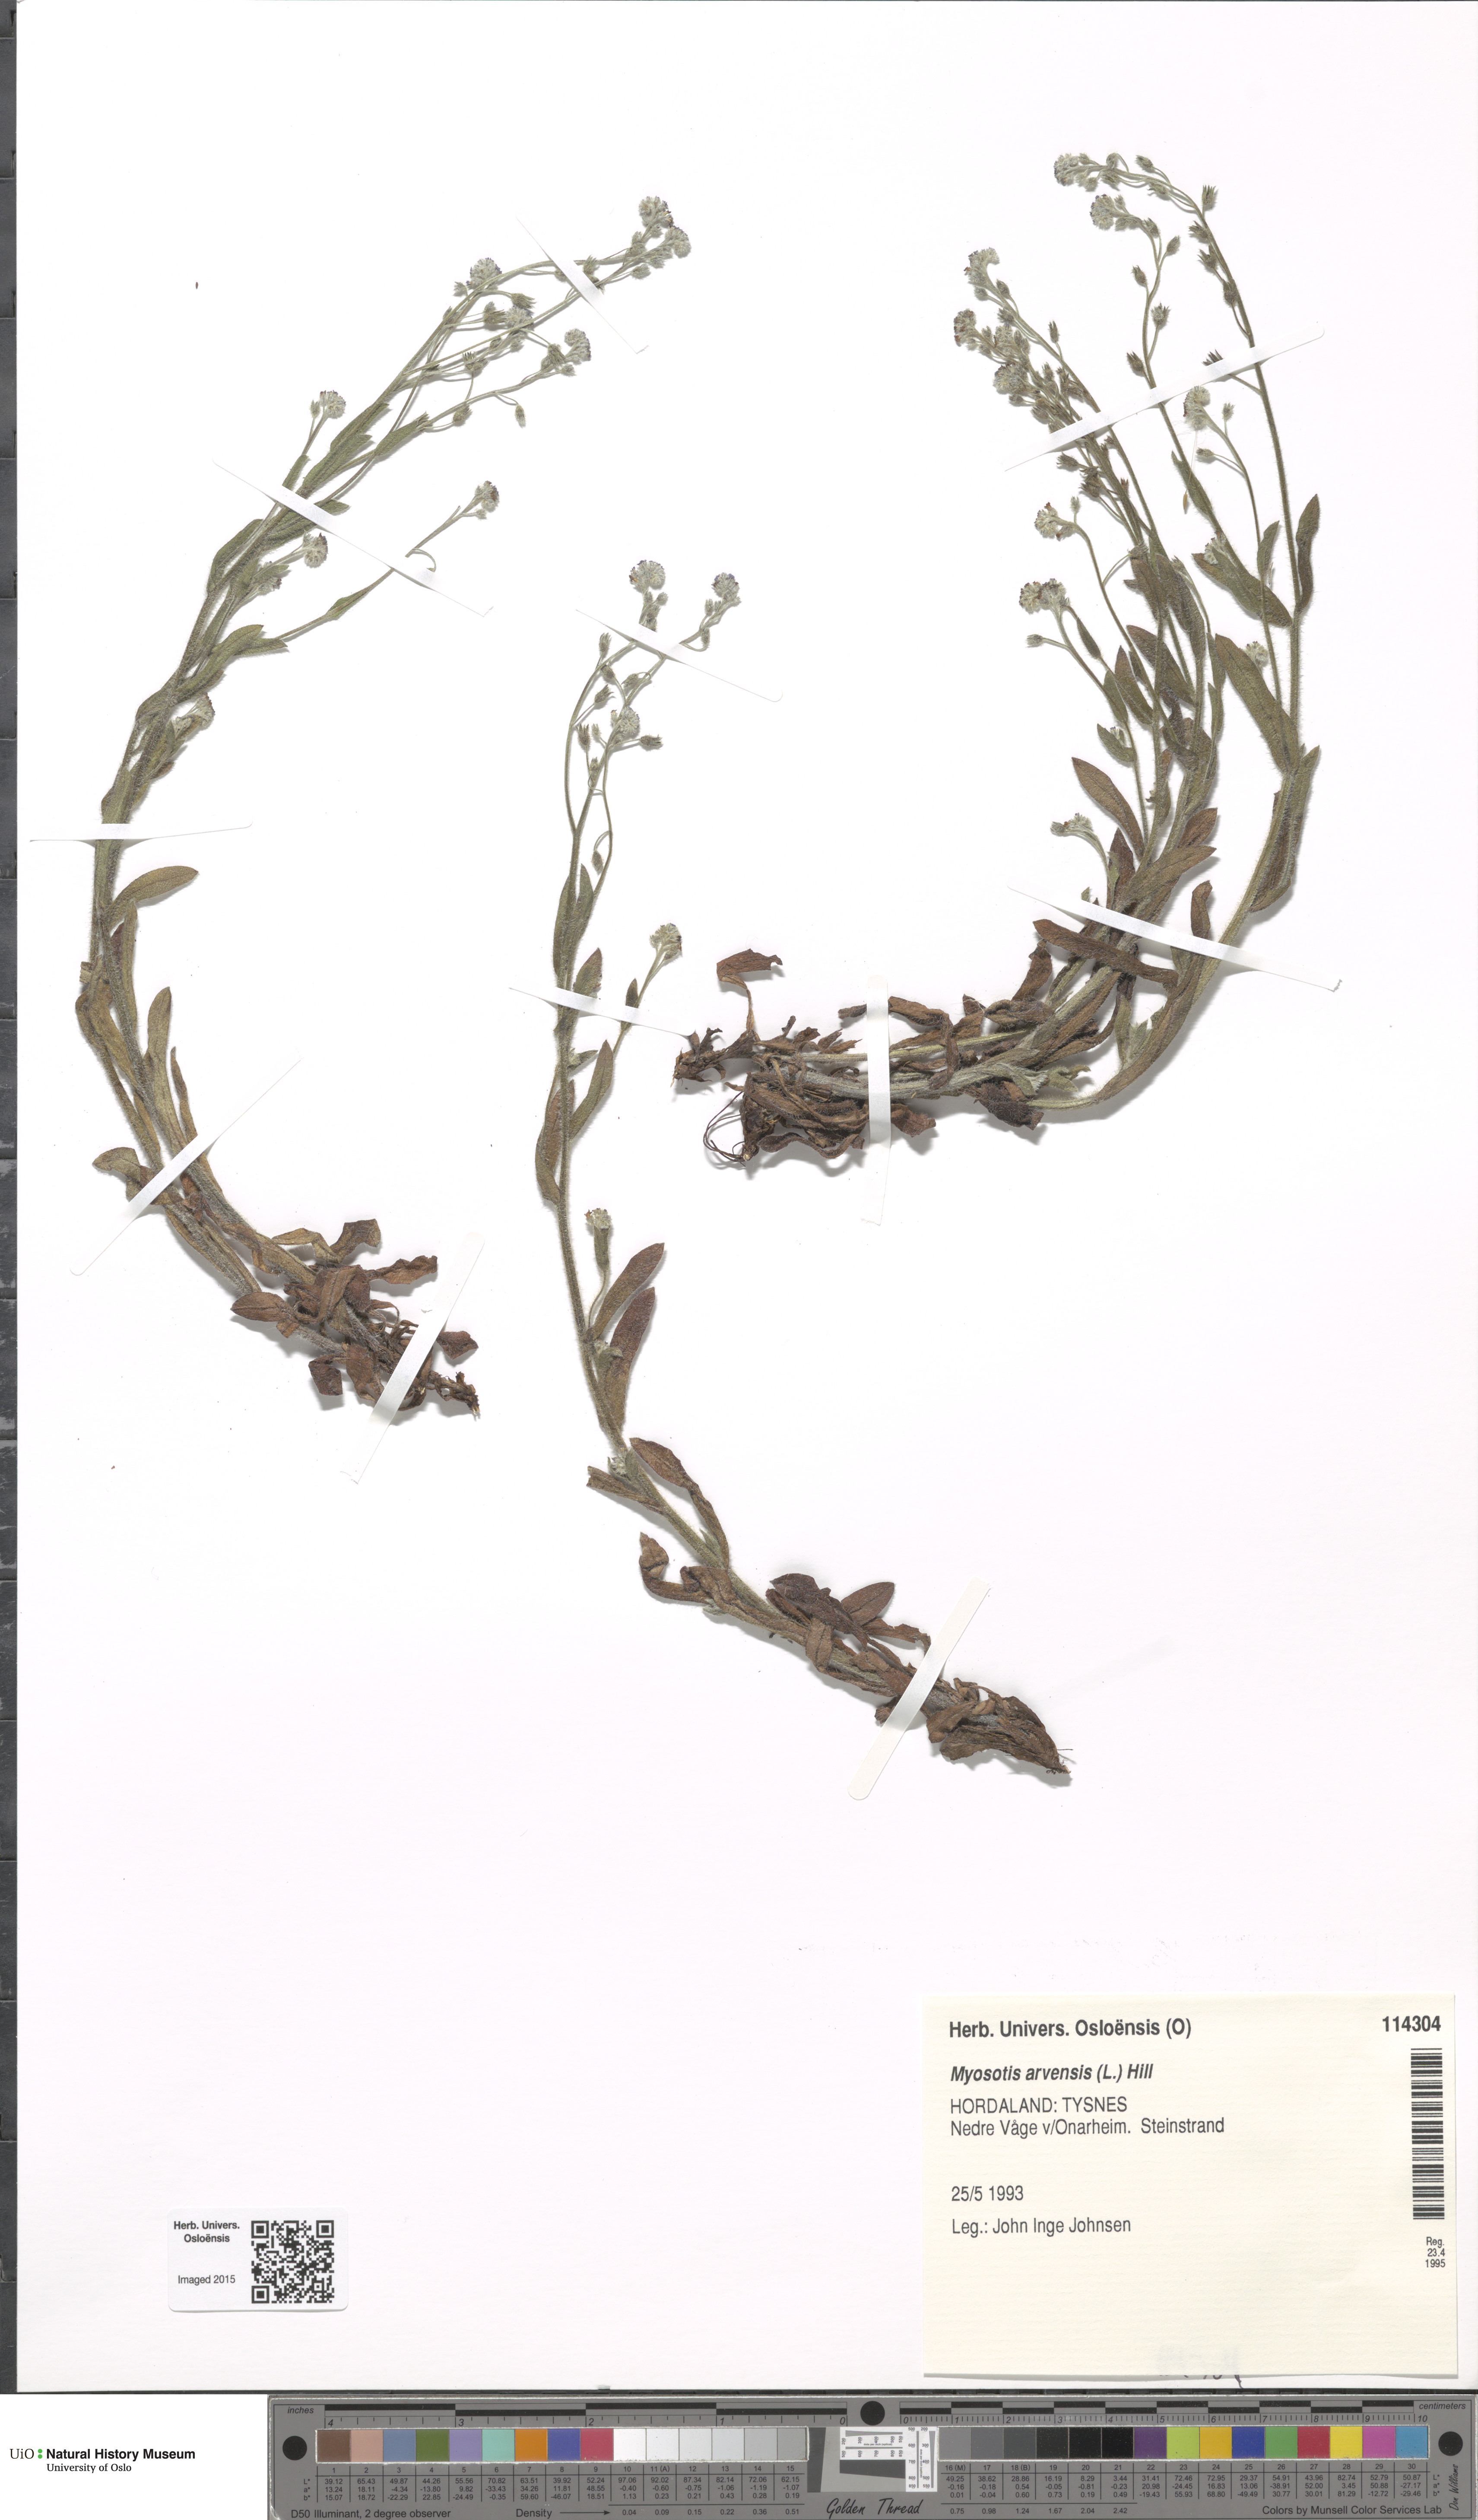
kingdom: Plantae
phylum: Tracheophyta
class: Magnoliopsida
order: Boraginales
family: Boraginaceae
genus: Myosotis
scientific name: Myosotis arvensis
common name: Field forget-me-not
